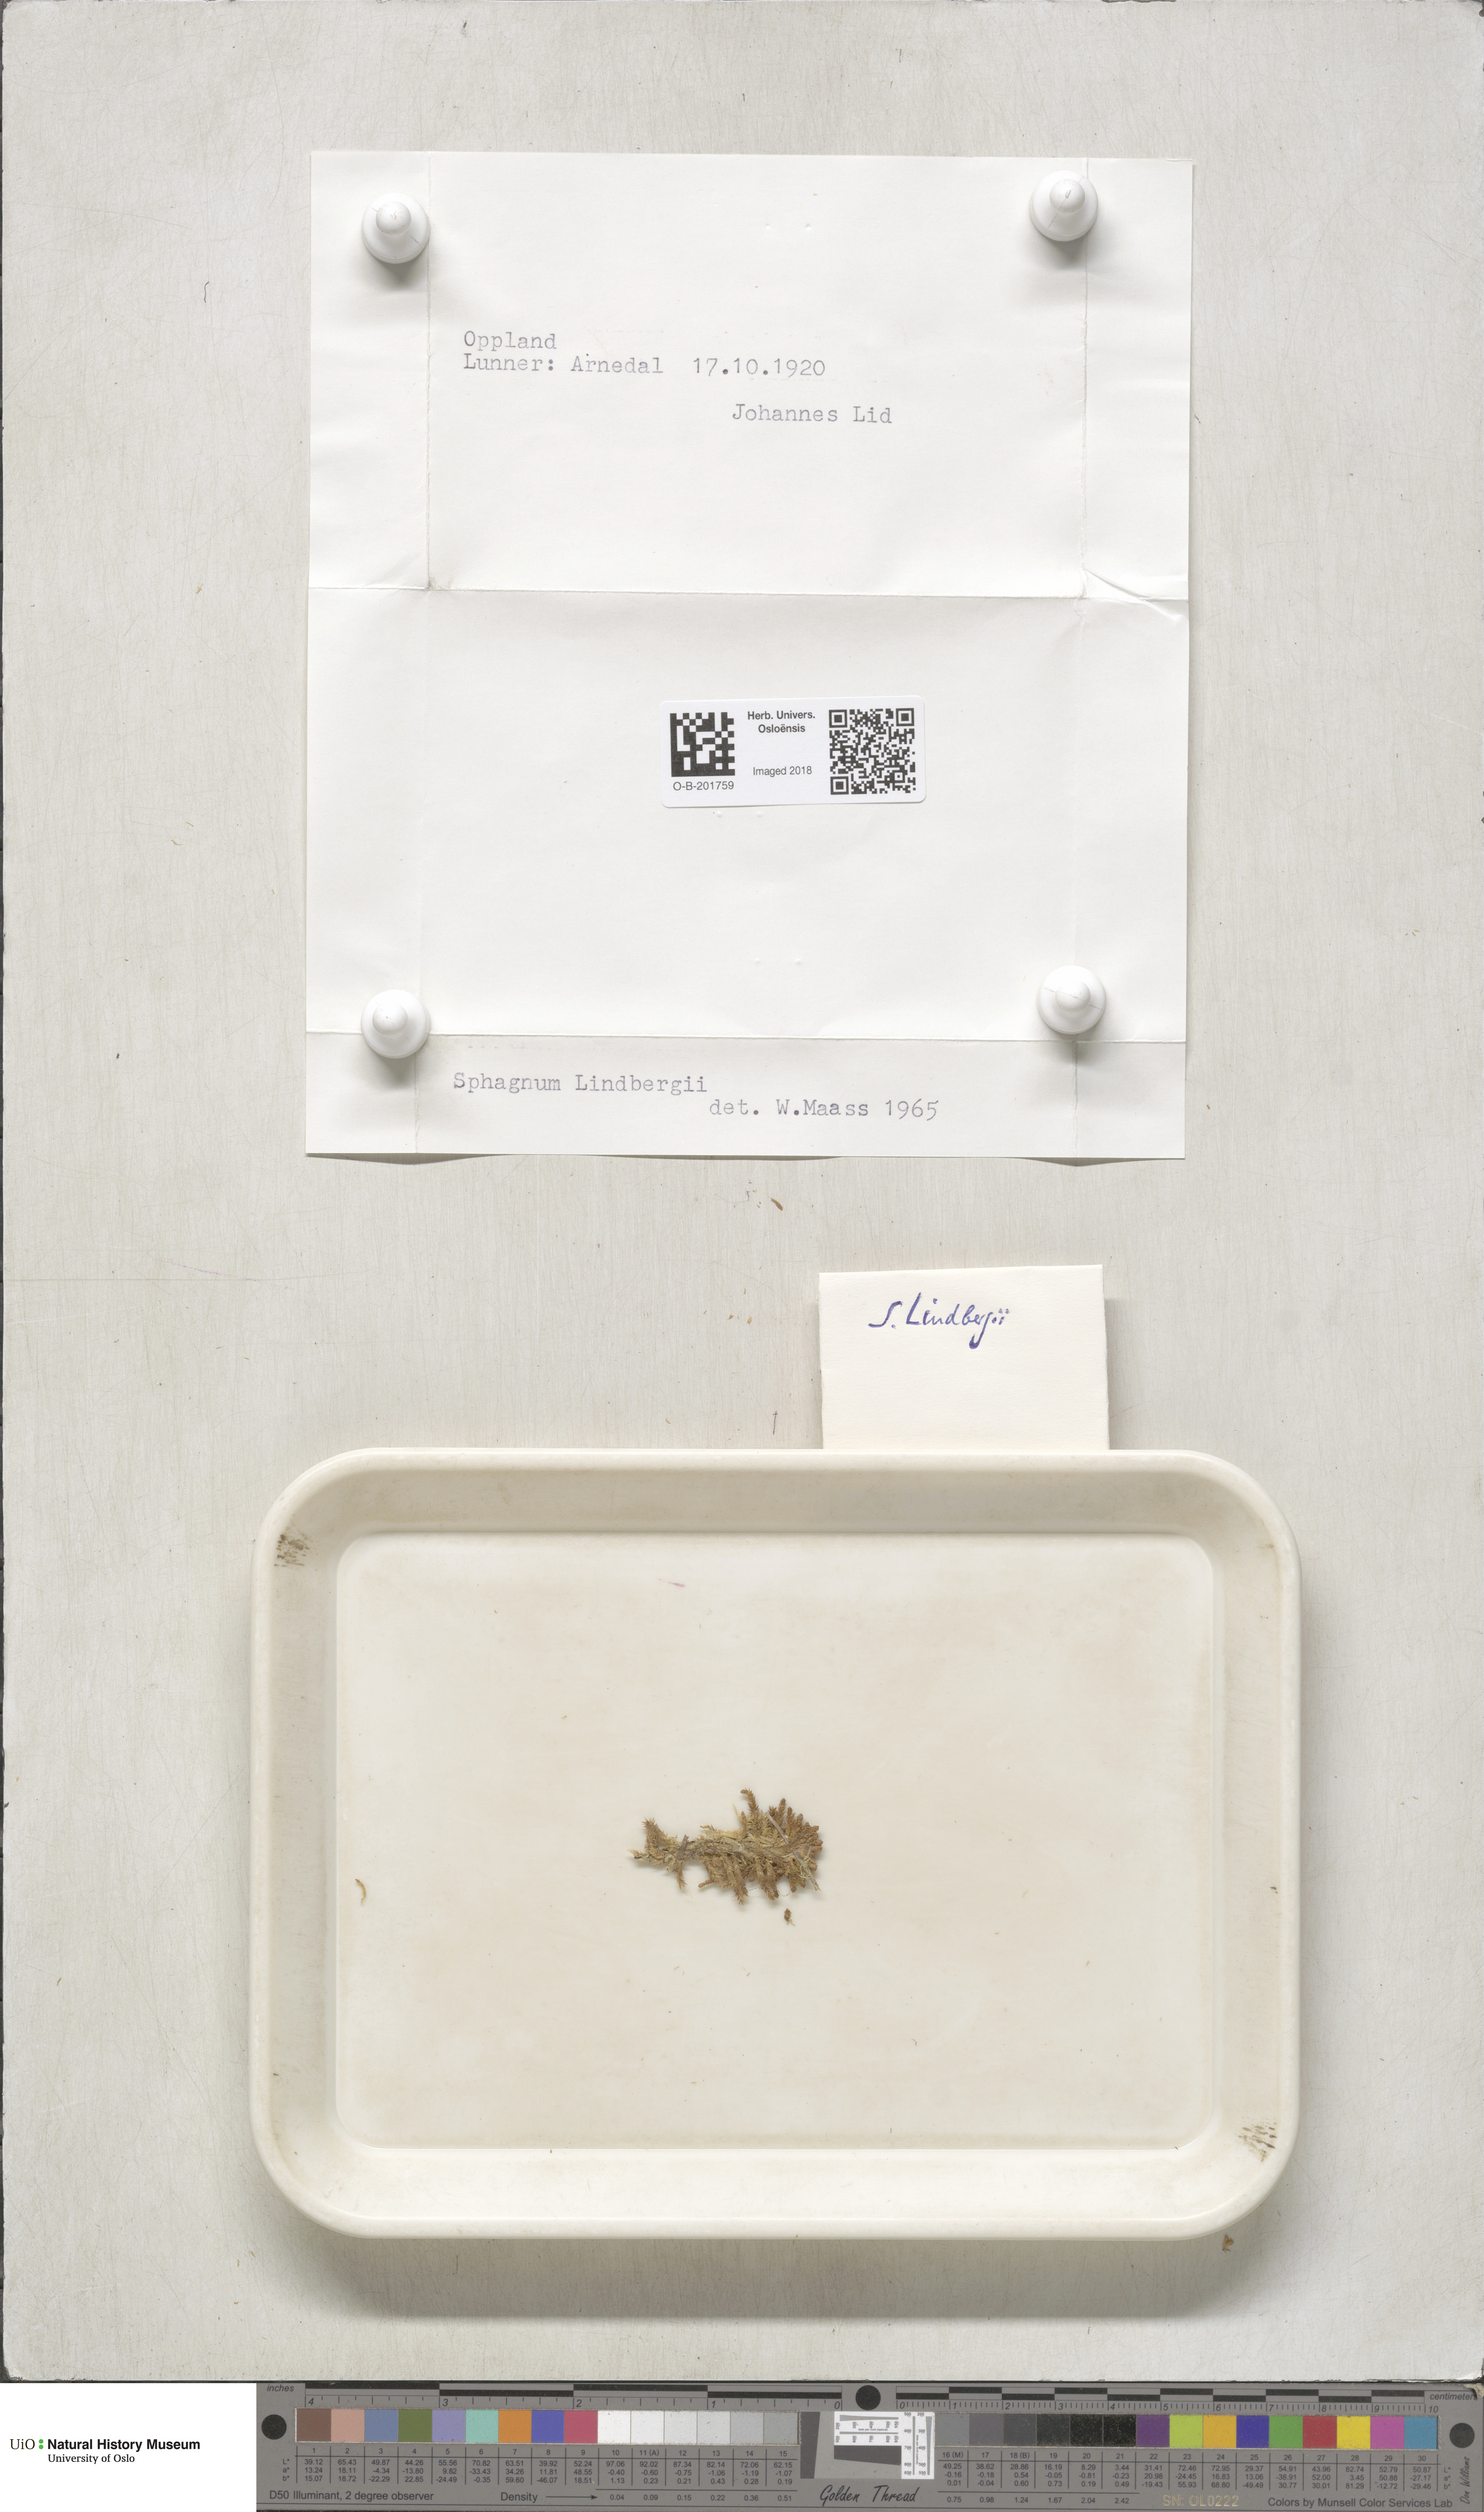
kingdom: Plantae
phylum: Bryophyta
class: Sphagnopsida
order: Sphagnales
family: Sphagnaceae
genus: Sphagnum
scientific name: Sphagnum lindbergii
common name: Lindberg's peat moss
